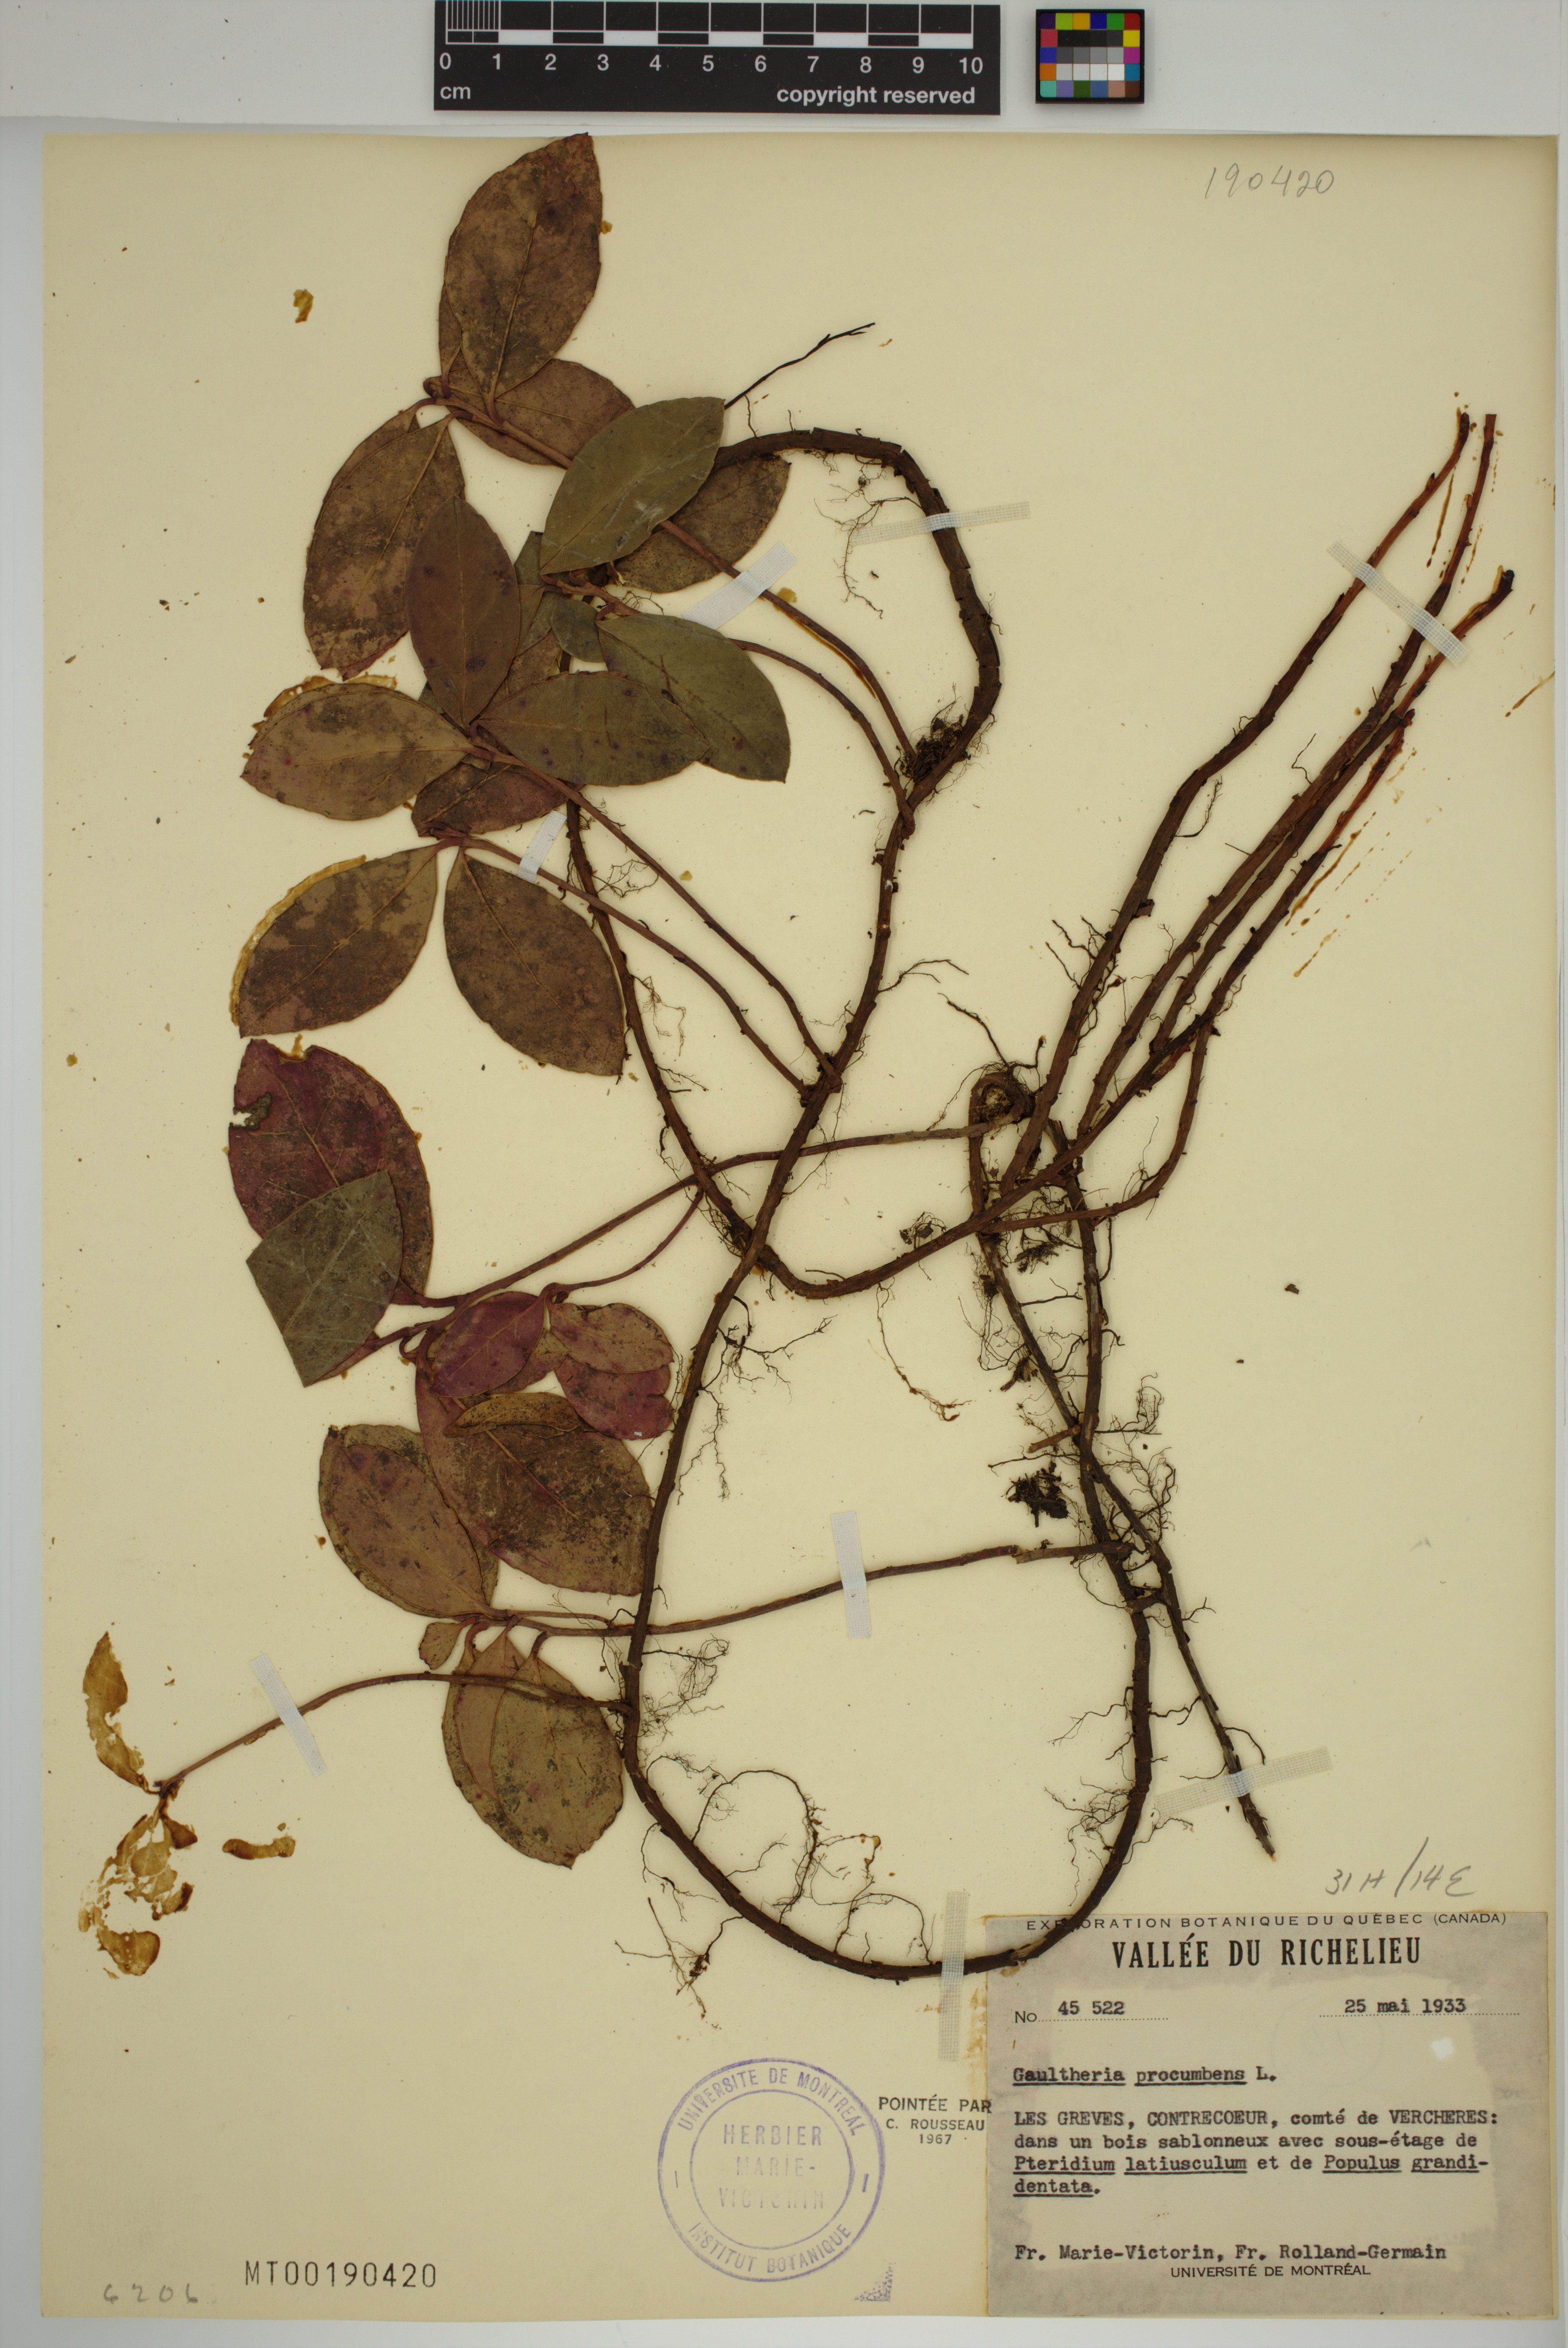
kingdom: Plantae
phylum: Tracheophyta
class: Magnoliopsida
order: Ericales
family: Ericaceae
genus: Gaultheria
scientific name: Gaultheria procumbens
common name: Checkerberry
